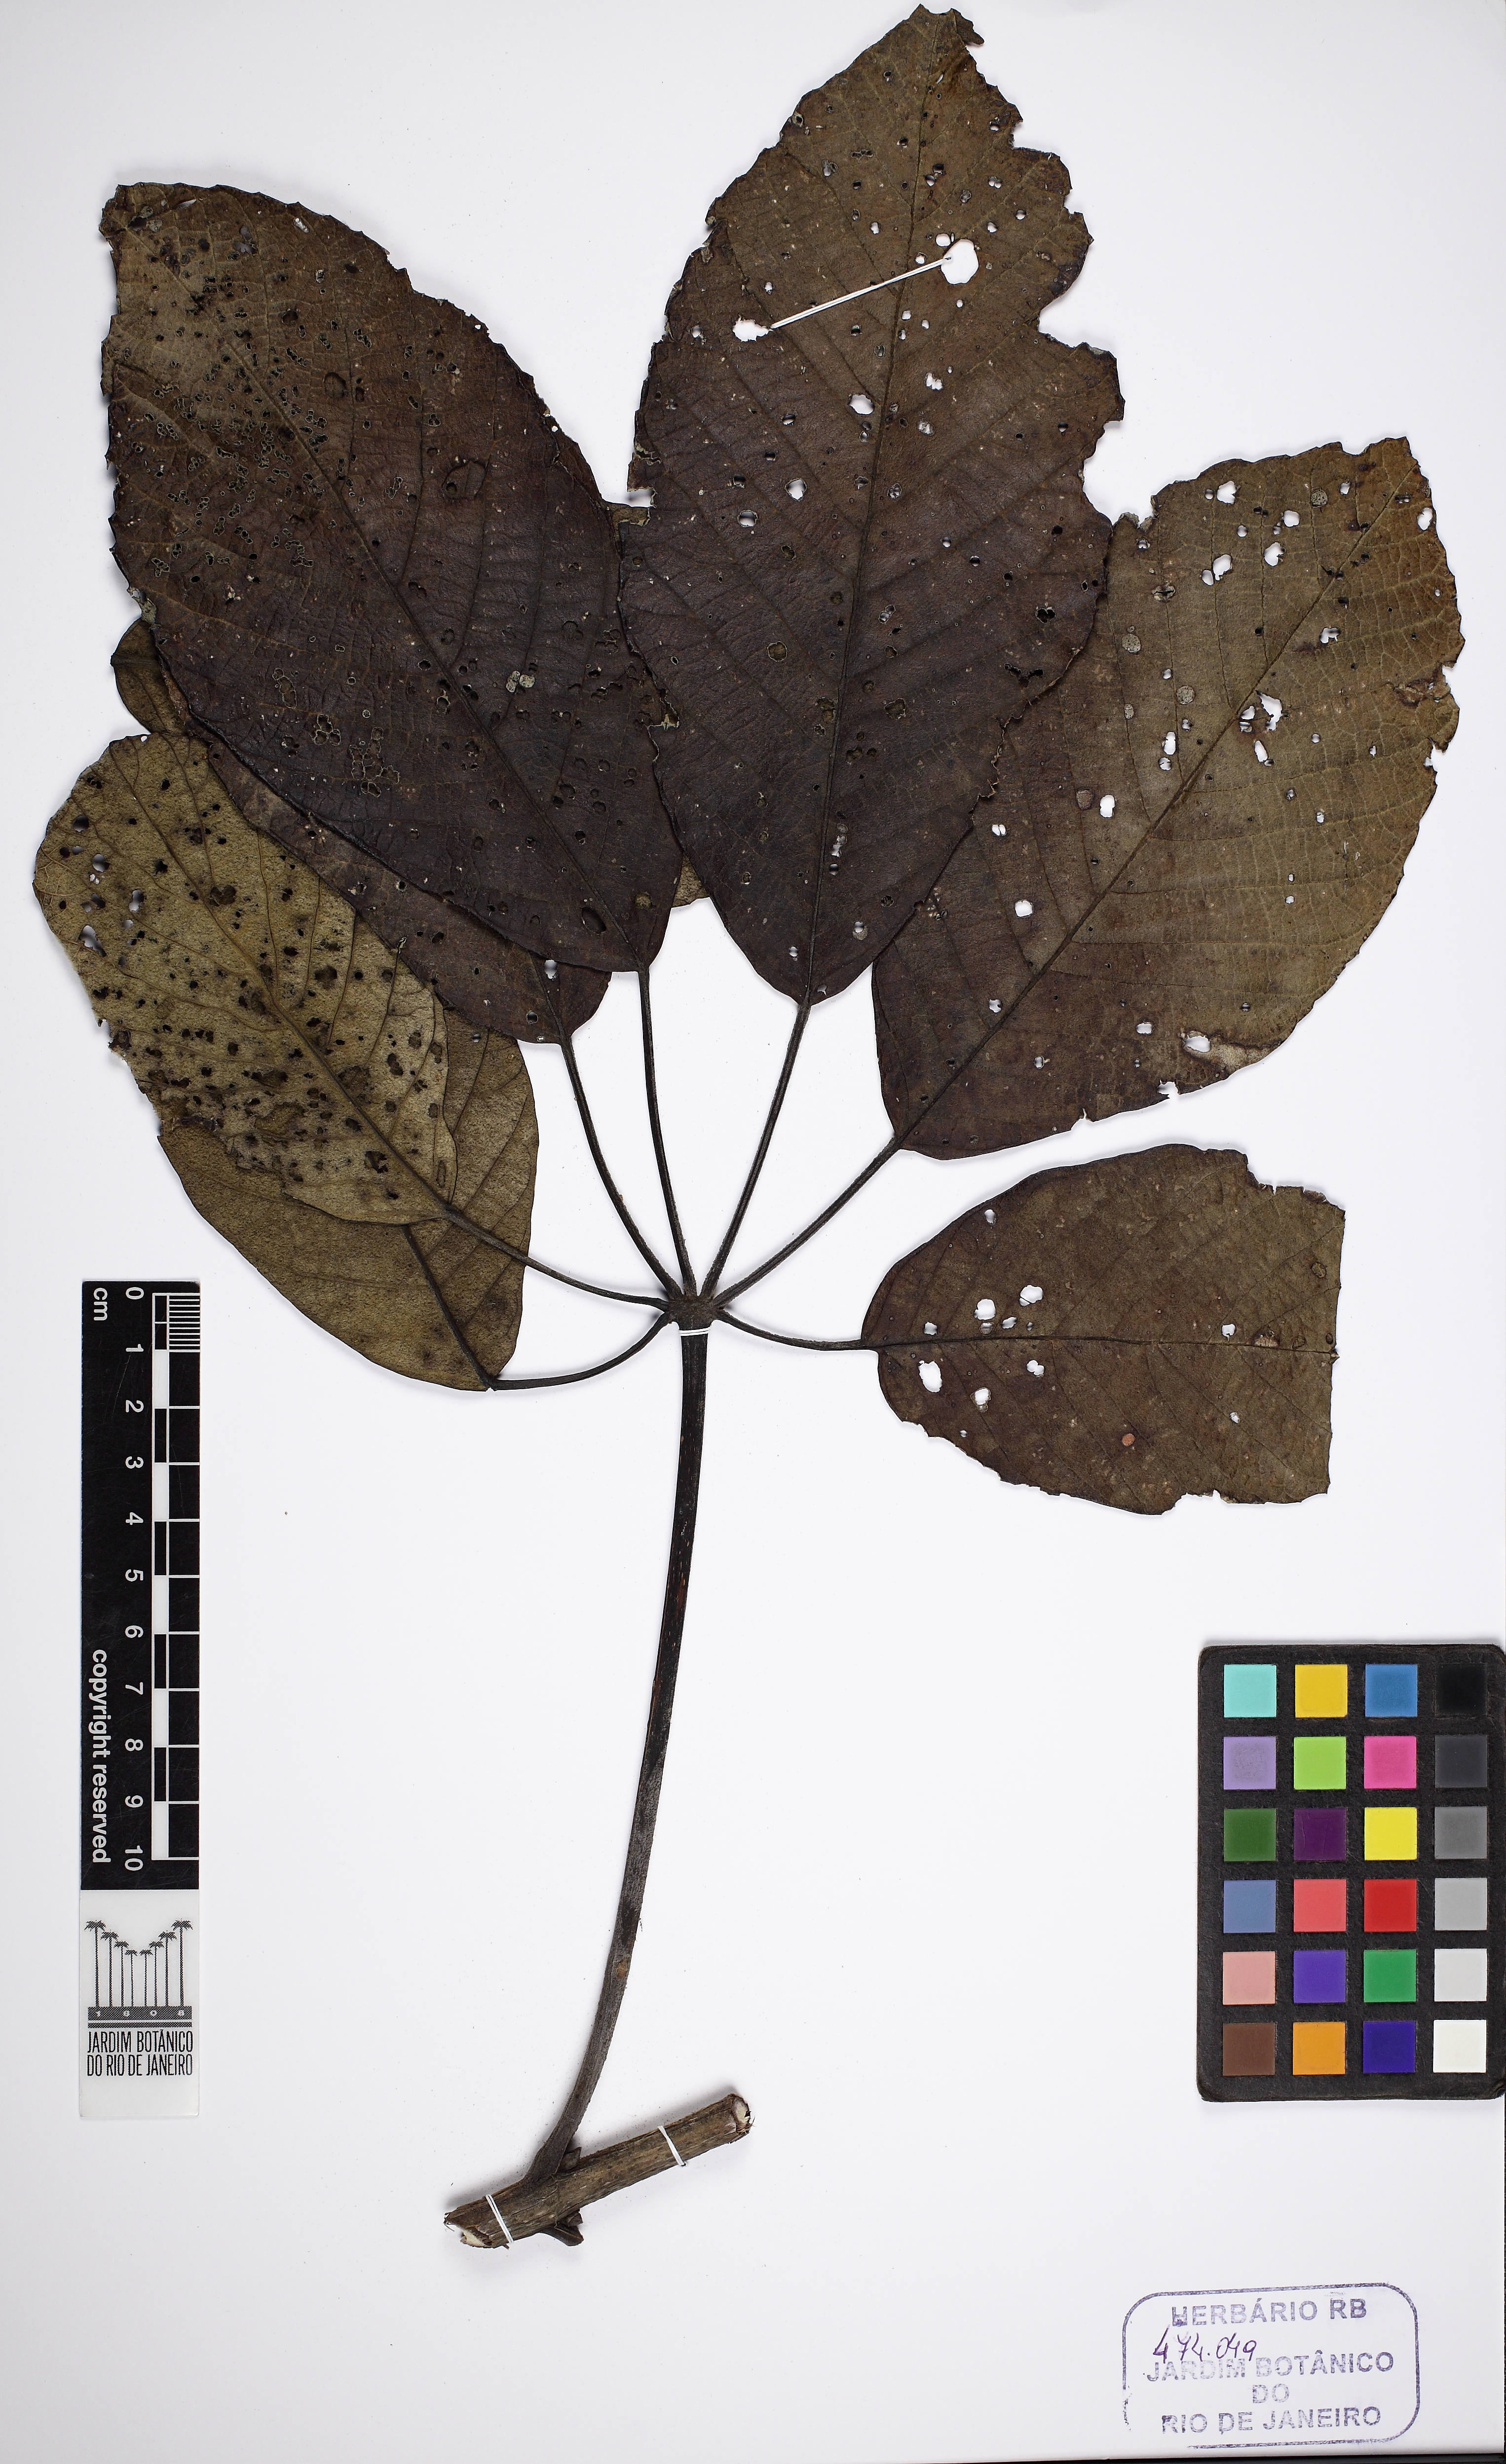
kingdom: Plantae
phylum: Tracheophyta
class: Magnoliopsida
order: Lamiales
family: Bignoniaceae
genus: Handroanthus
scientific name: Handroanthus vellosoi
